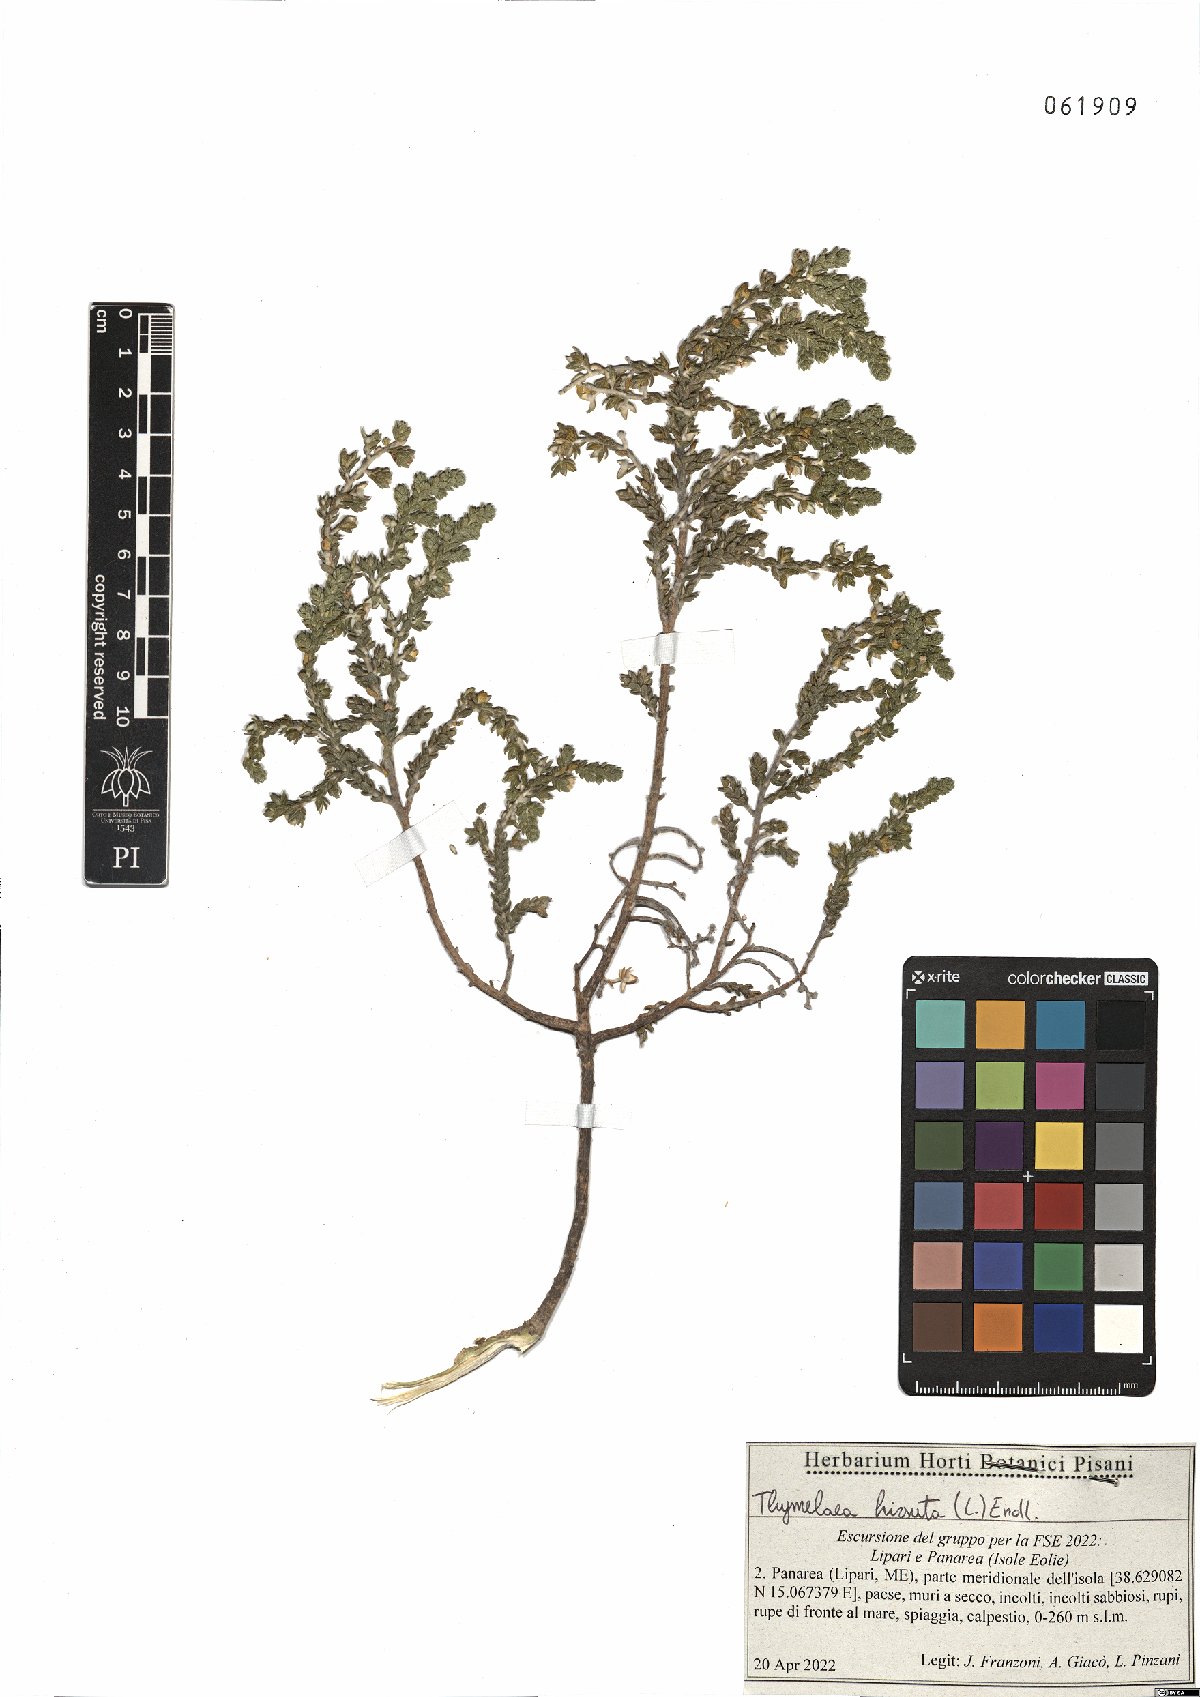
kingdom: Plantae
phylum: Tracheophyta
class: Magnoliopsida
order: Malvales
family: Thymelaeaceae
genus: Thymelaea
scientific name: Thymelaea hirsuta
